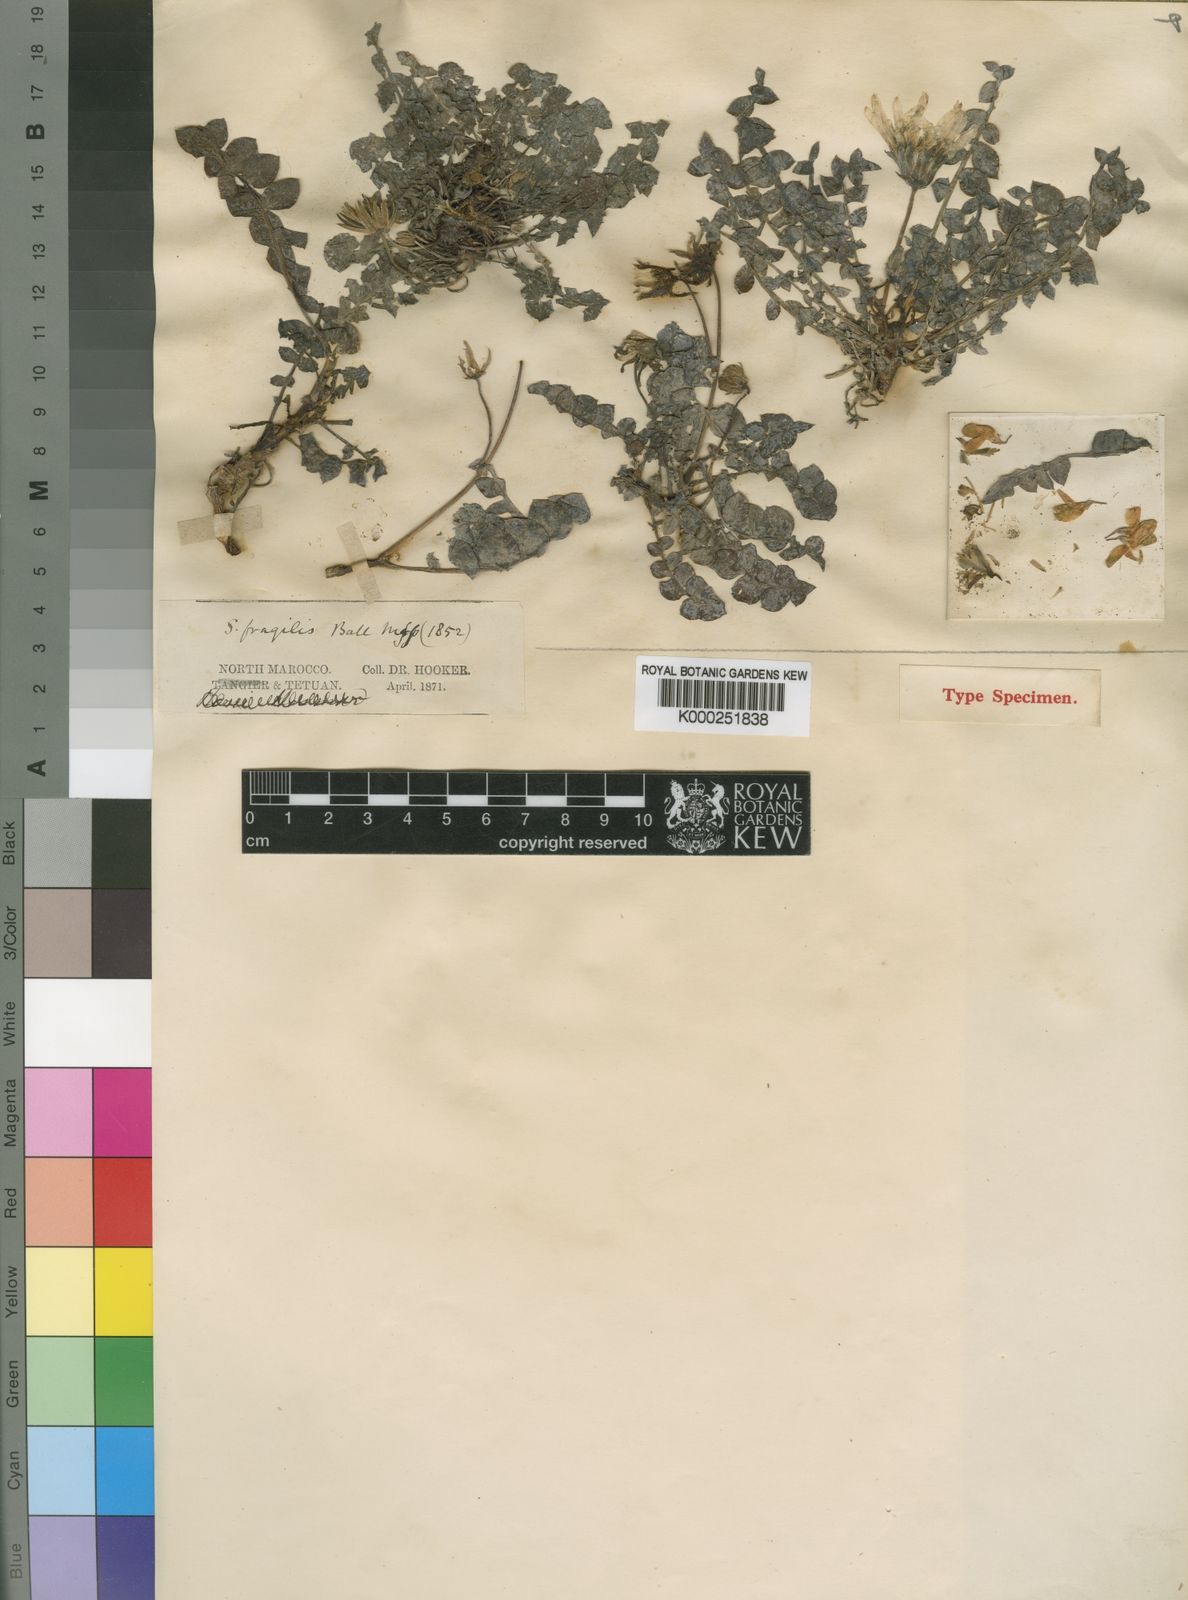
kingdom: Plantae
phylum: Tracheophyta
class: Magnoliopsida
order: Asterales
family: Asteraceae
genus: Sonchus
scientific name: Sonchus fragilis
